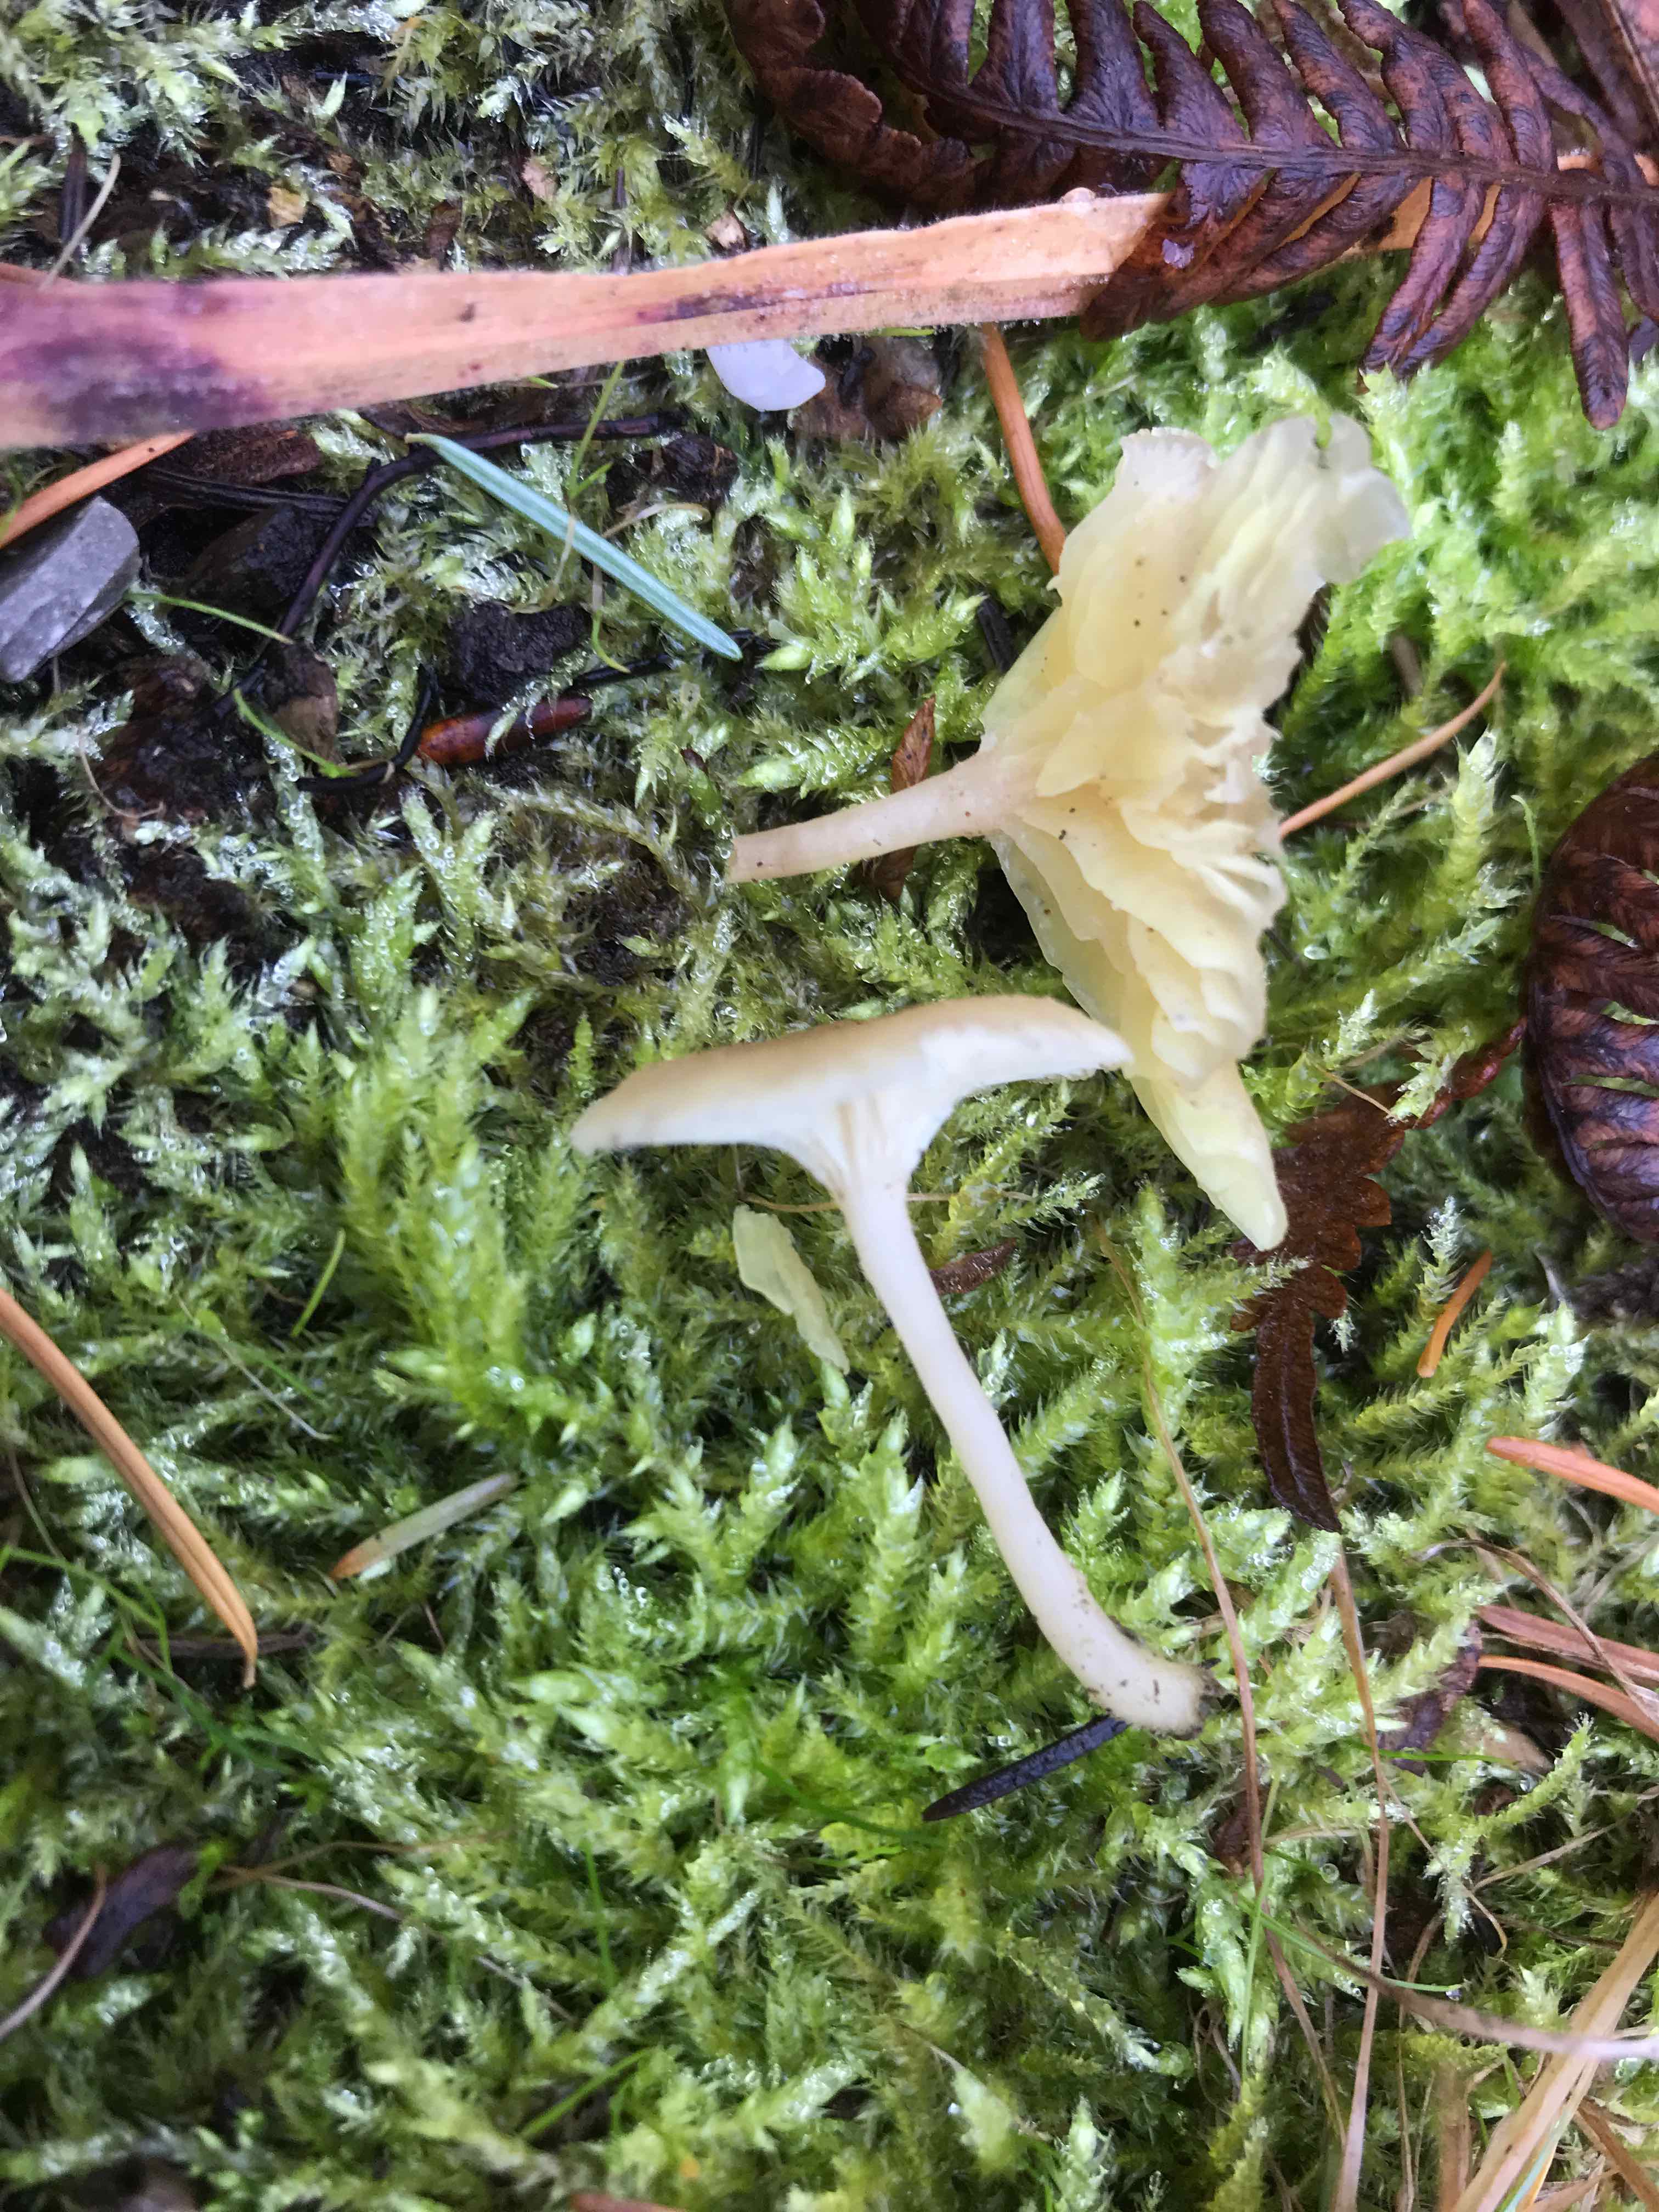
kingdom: Fungi
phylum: Basidiomycota
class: Agaricomycetes
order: Agaricales
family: Hygrophoraceae
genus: Chrysomphalina
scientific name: Chrysomphalina grossula
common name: stød-gyldenblad
